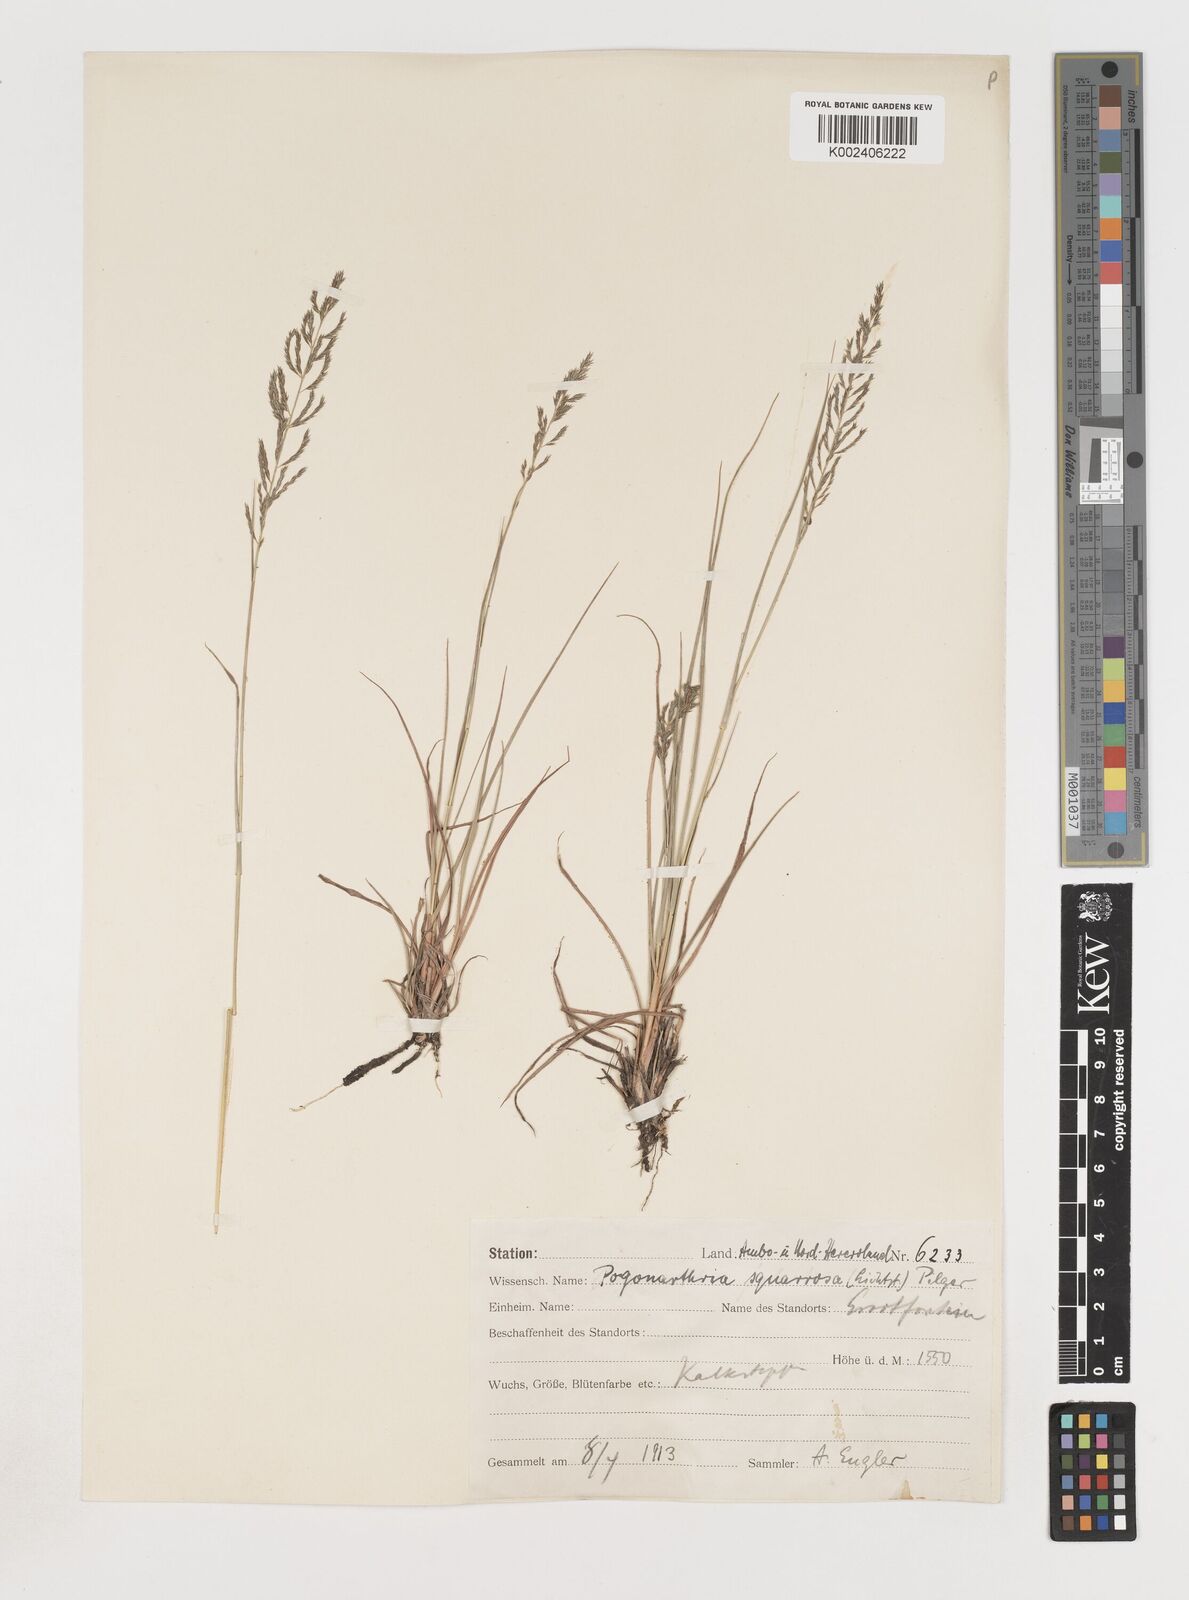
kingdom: Plantae
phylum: Tracheophyta
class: Liliopsida
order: Poales
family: Poaceae
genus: Pogonarthria
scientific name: Pogonarthria squarrosa
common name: Grass
